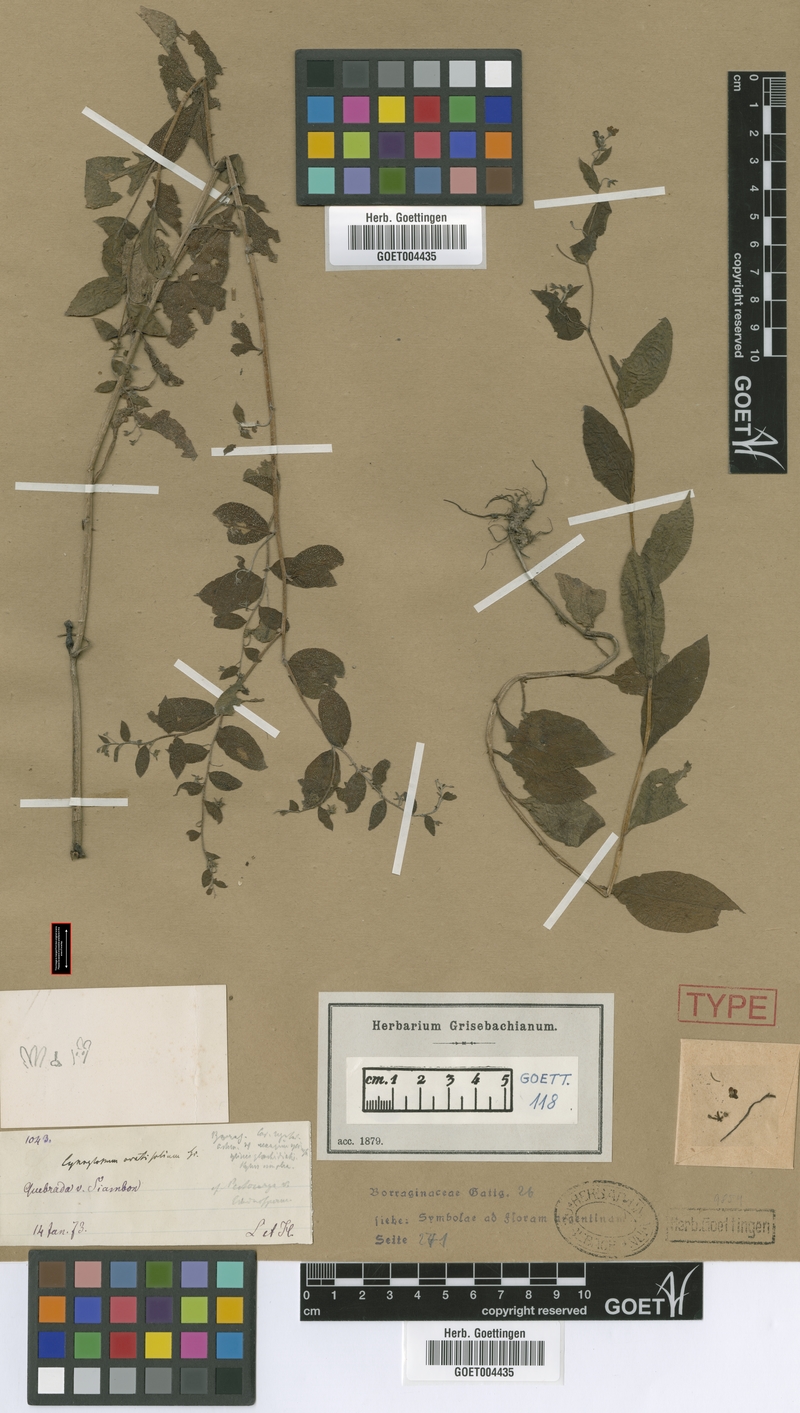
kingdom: Plantae
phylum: Tracheophyta
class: Magnoliopsida
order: Boraginales
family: Boraginaceae
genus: Hackelia
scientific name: Hackelia revoluta
